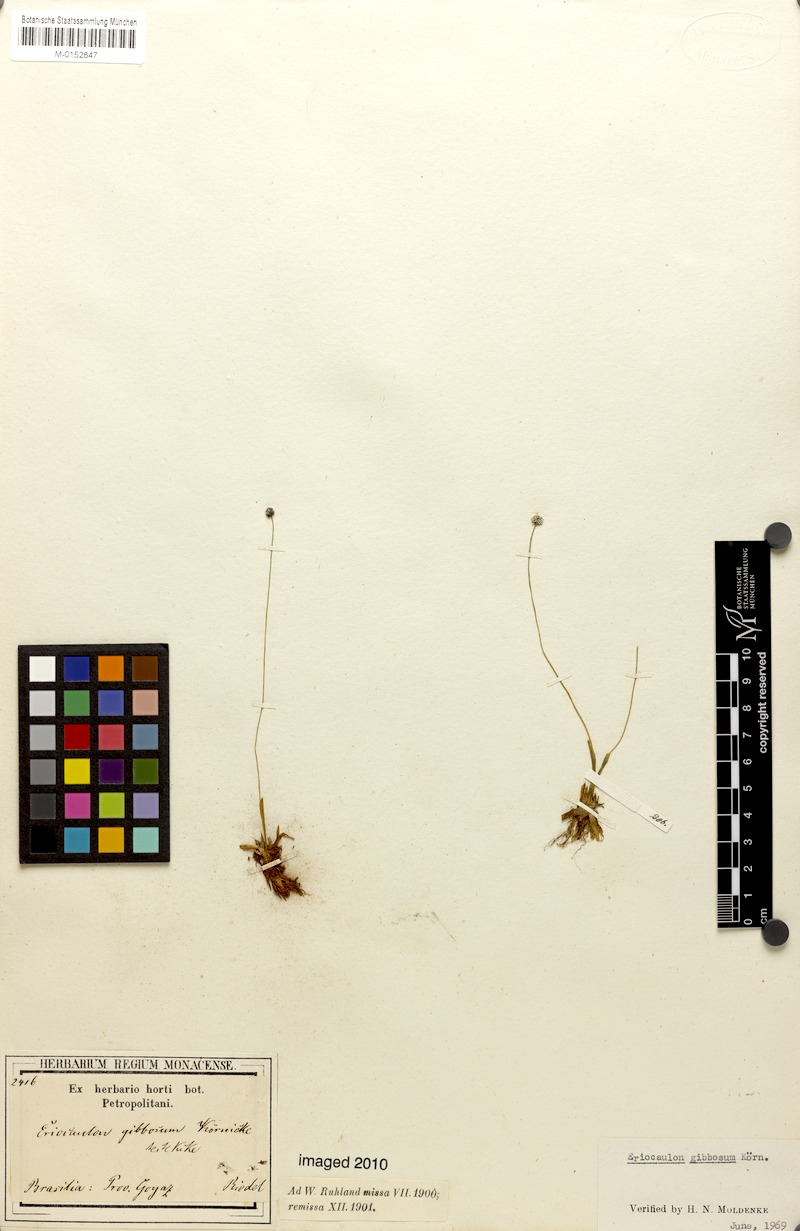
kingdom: Plantae
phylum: Tracheophyta
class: Liliopsida
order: Poales
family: Eriocaulaceae
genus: Eriocaulon
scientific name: Eriocaulon gibbosum
